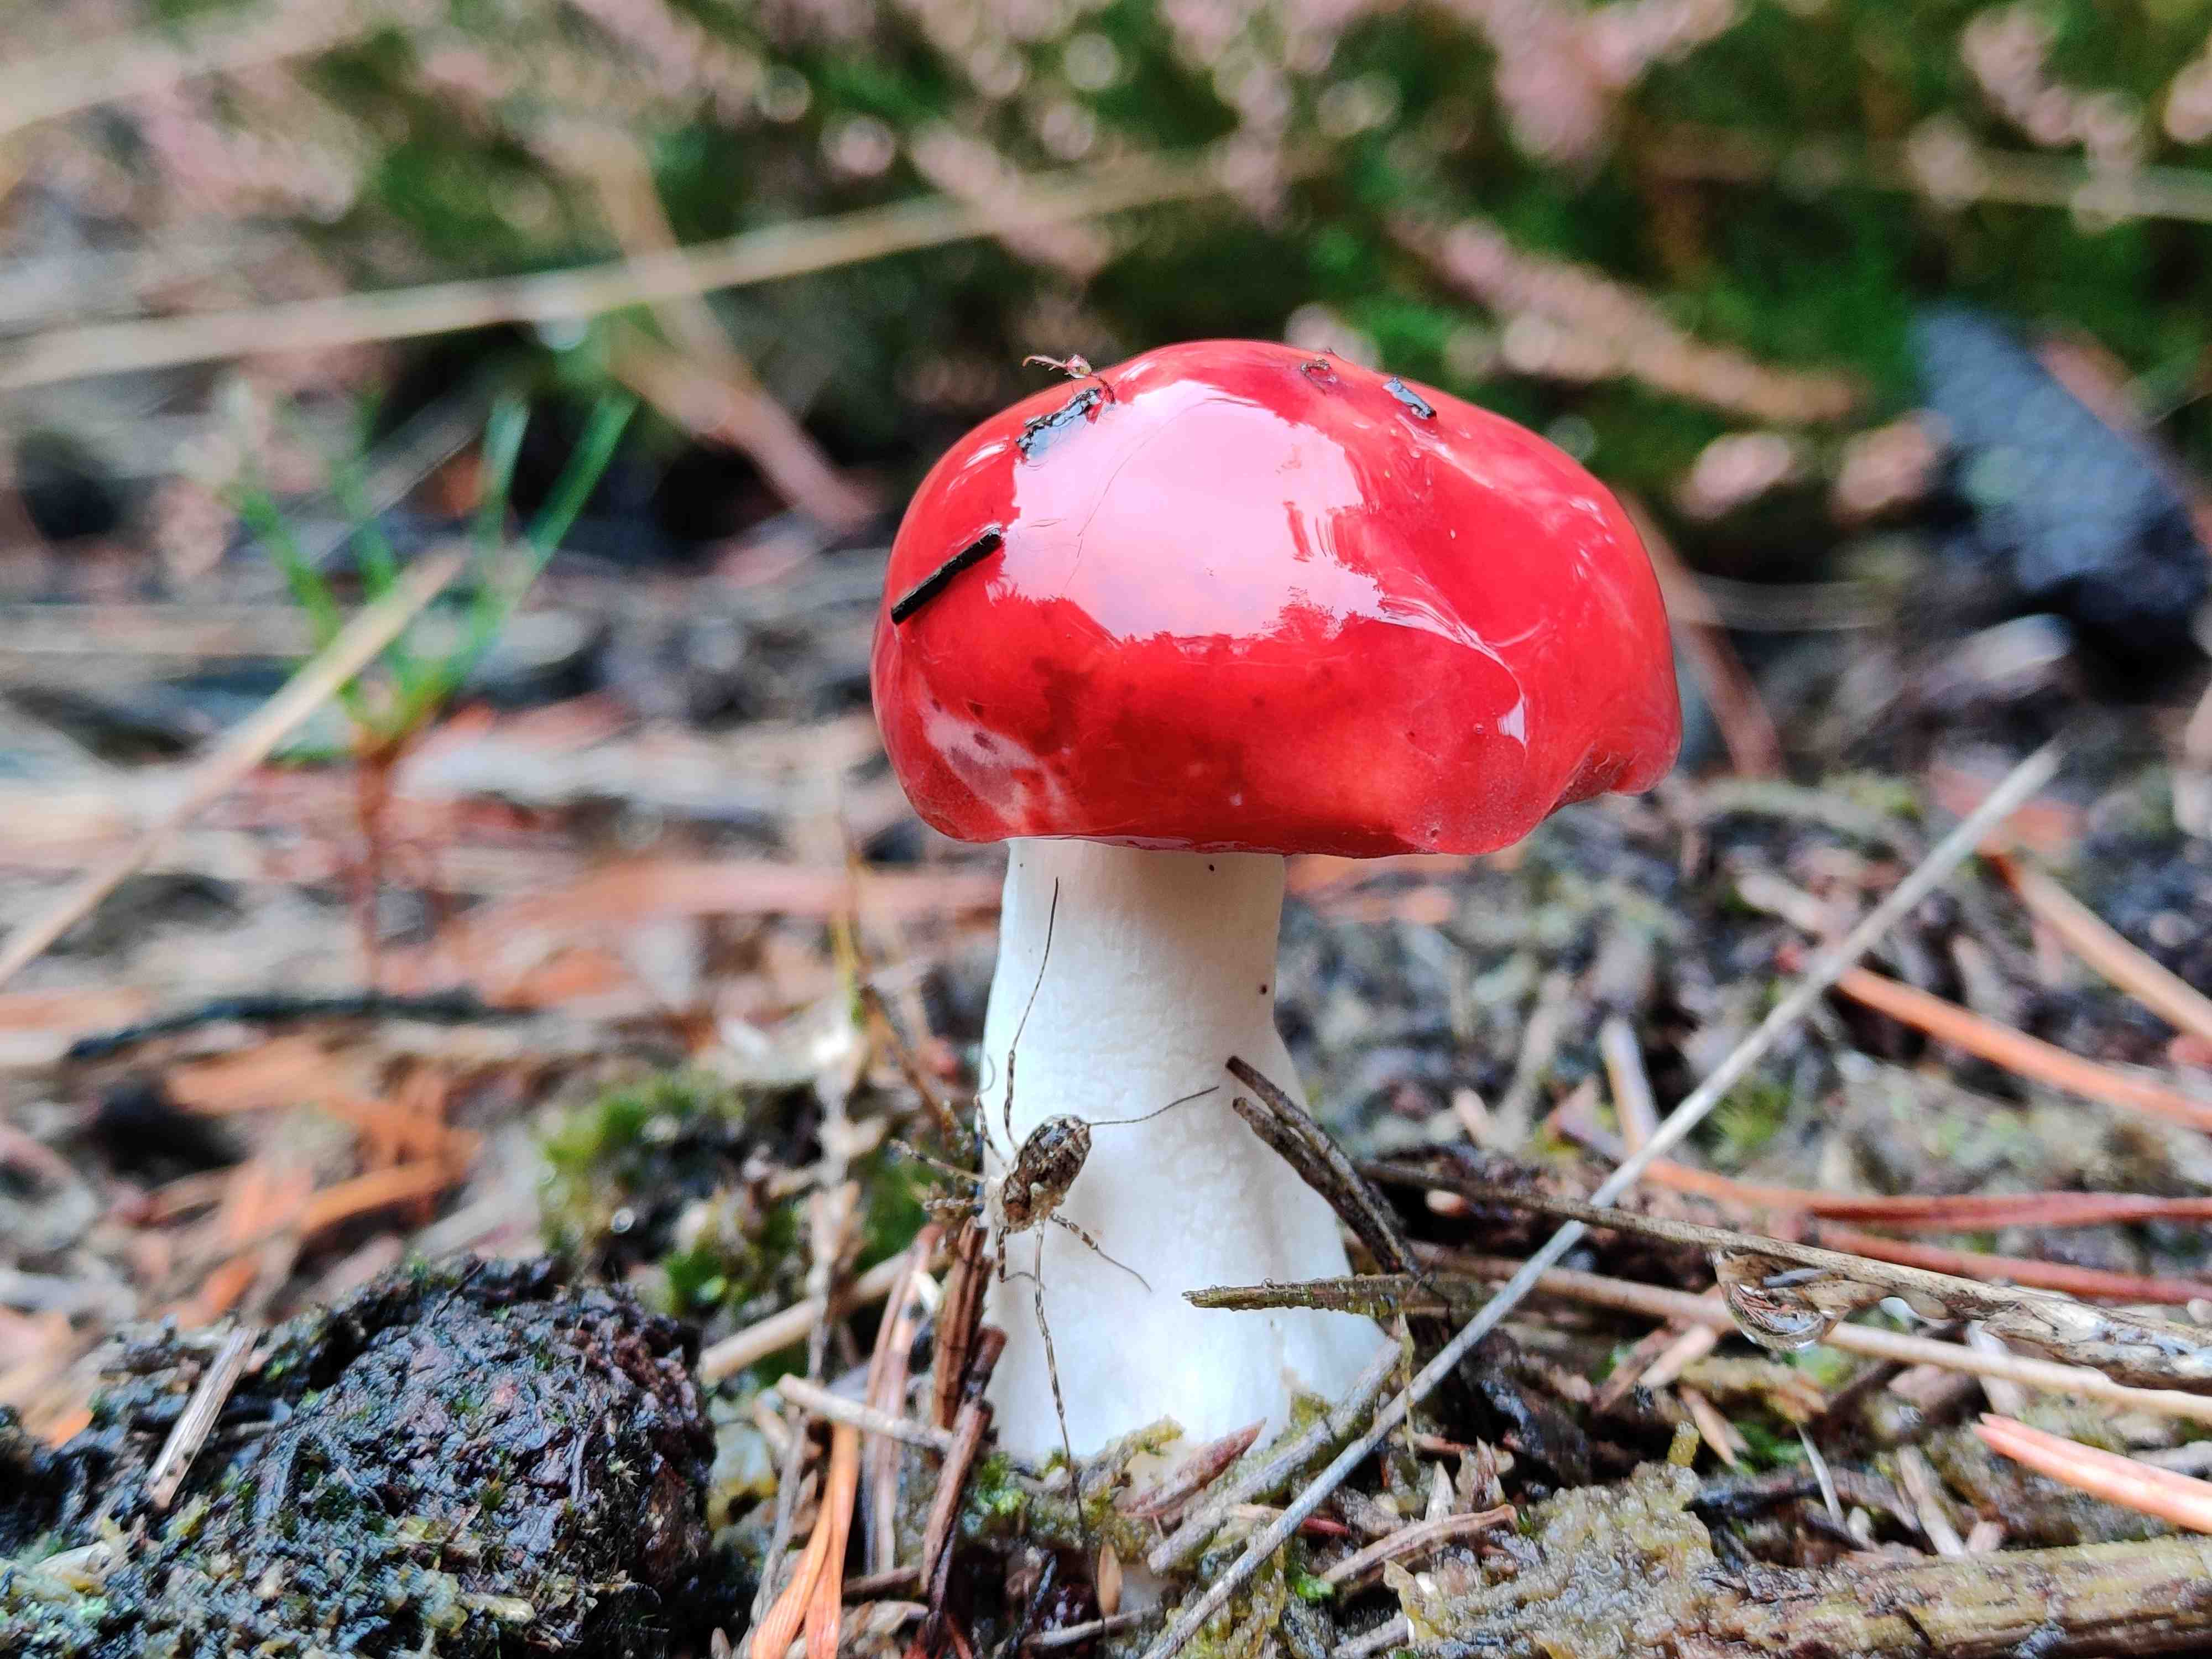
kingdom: Fungi
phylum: Basidiomycota
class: Agaricomycetes
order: Russulales
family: Russulaceae
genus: Russula
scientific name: Russula emetica
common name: stor gift-skørhat
